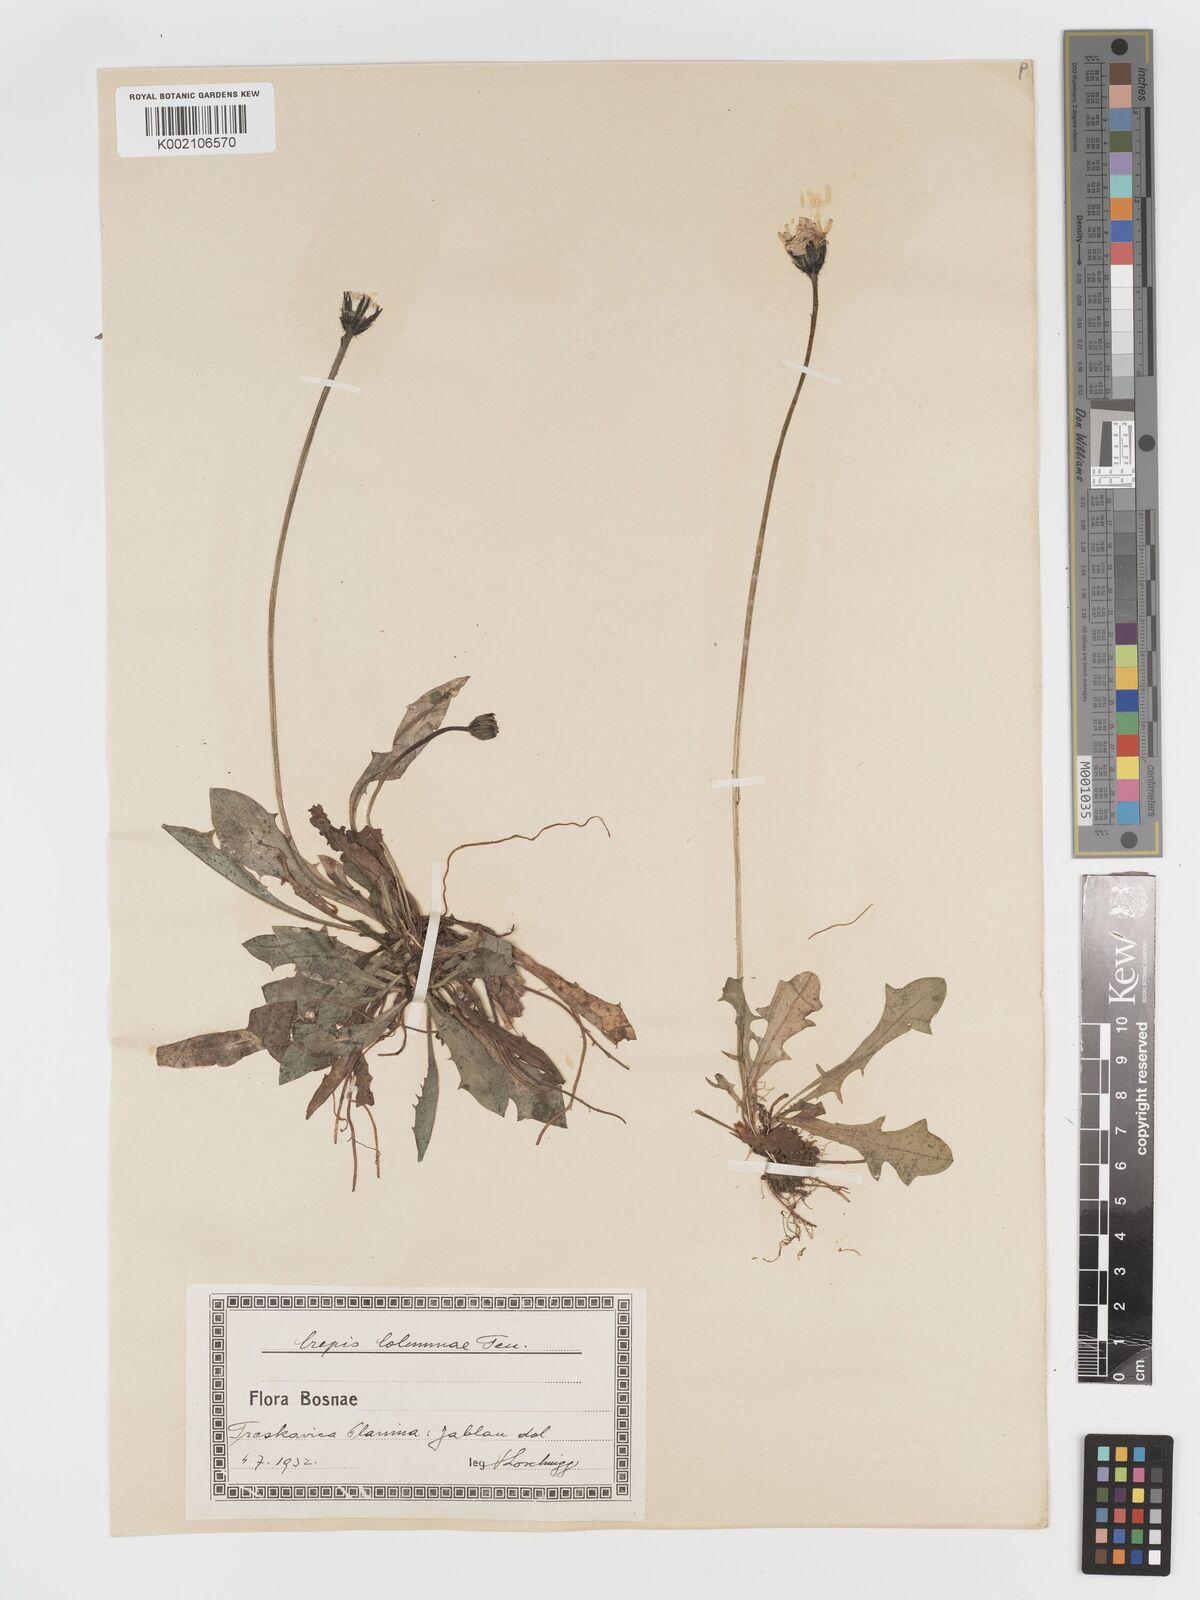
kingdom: Plantae
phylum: Tracheophyta
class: Magnoliopsida
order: Asterales
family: Asteraceae
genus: Crepis
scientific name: Crepis aurea
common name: Golden hawk's-beard
